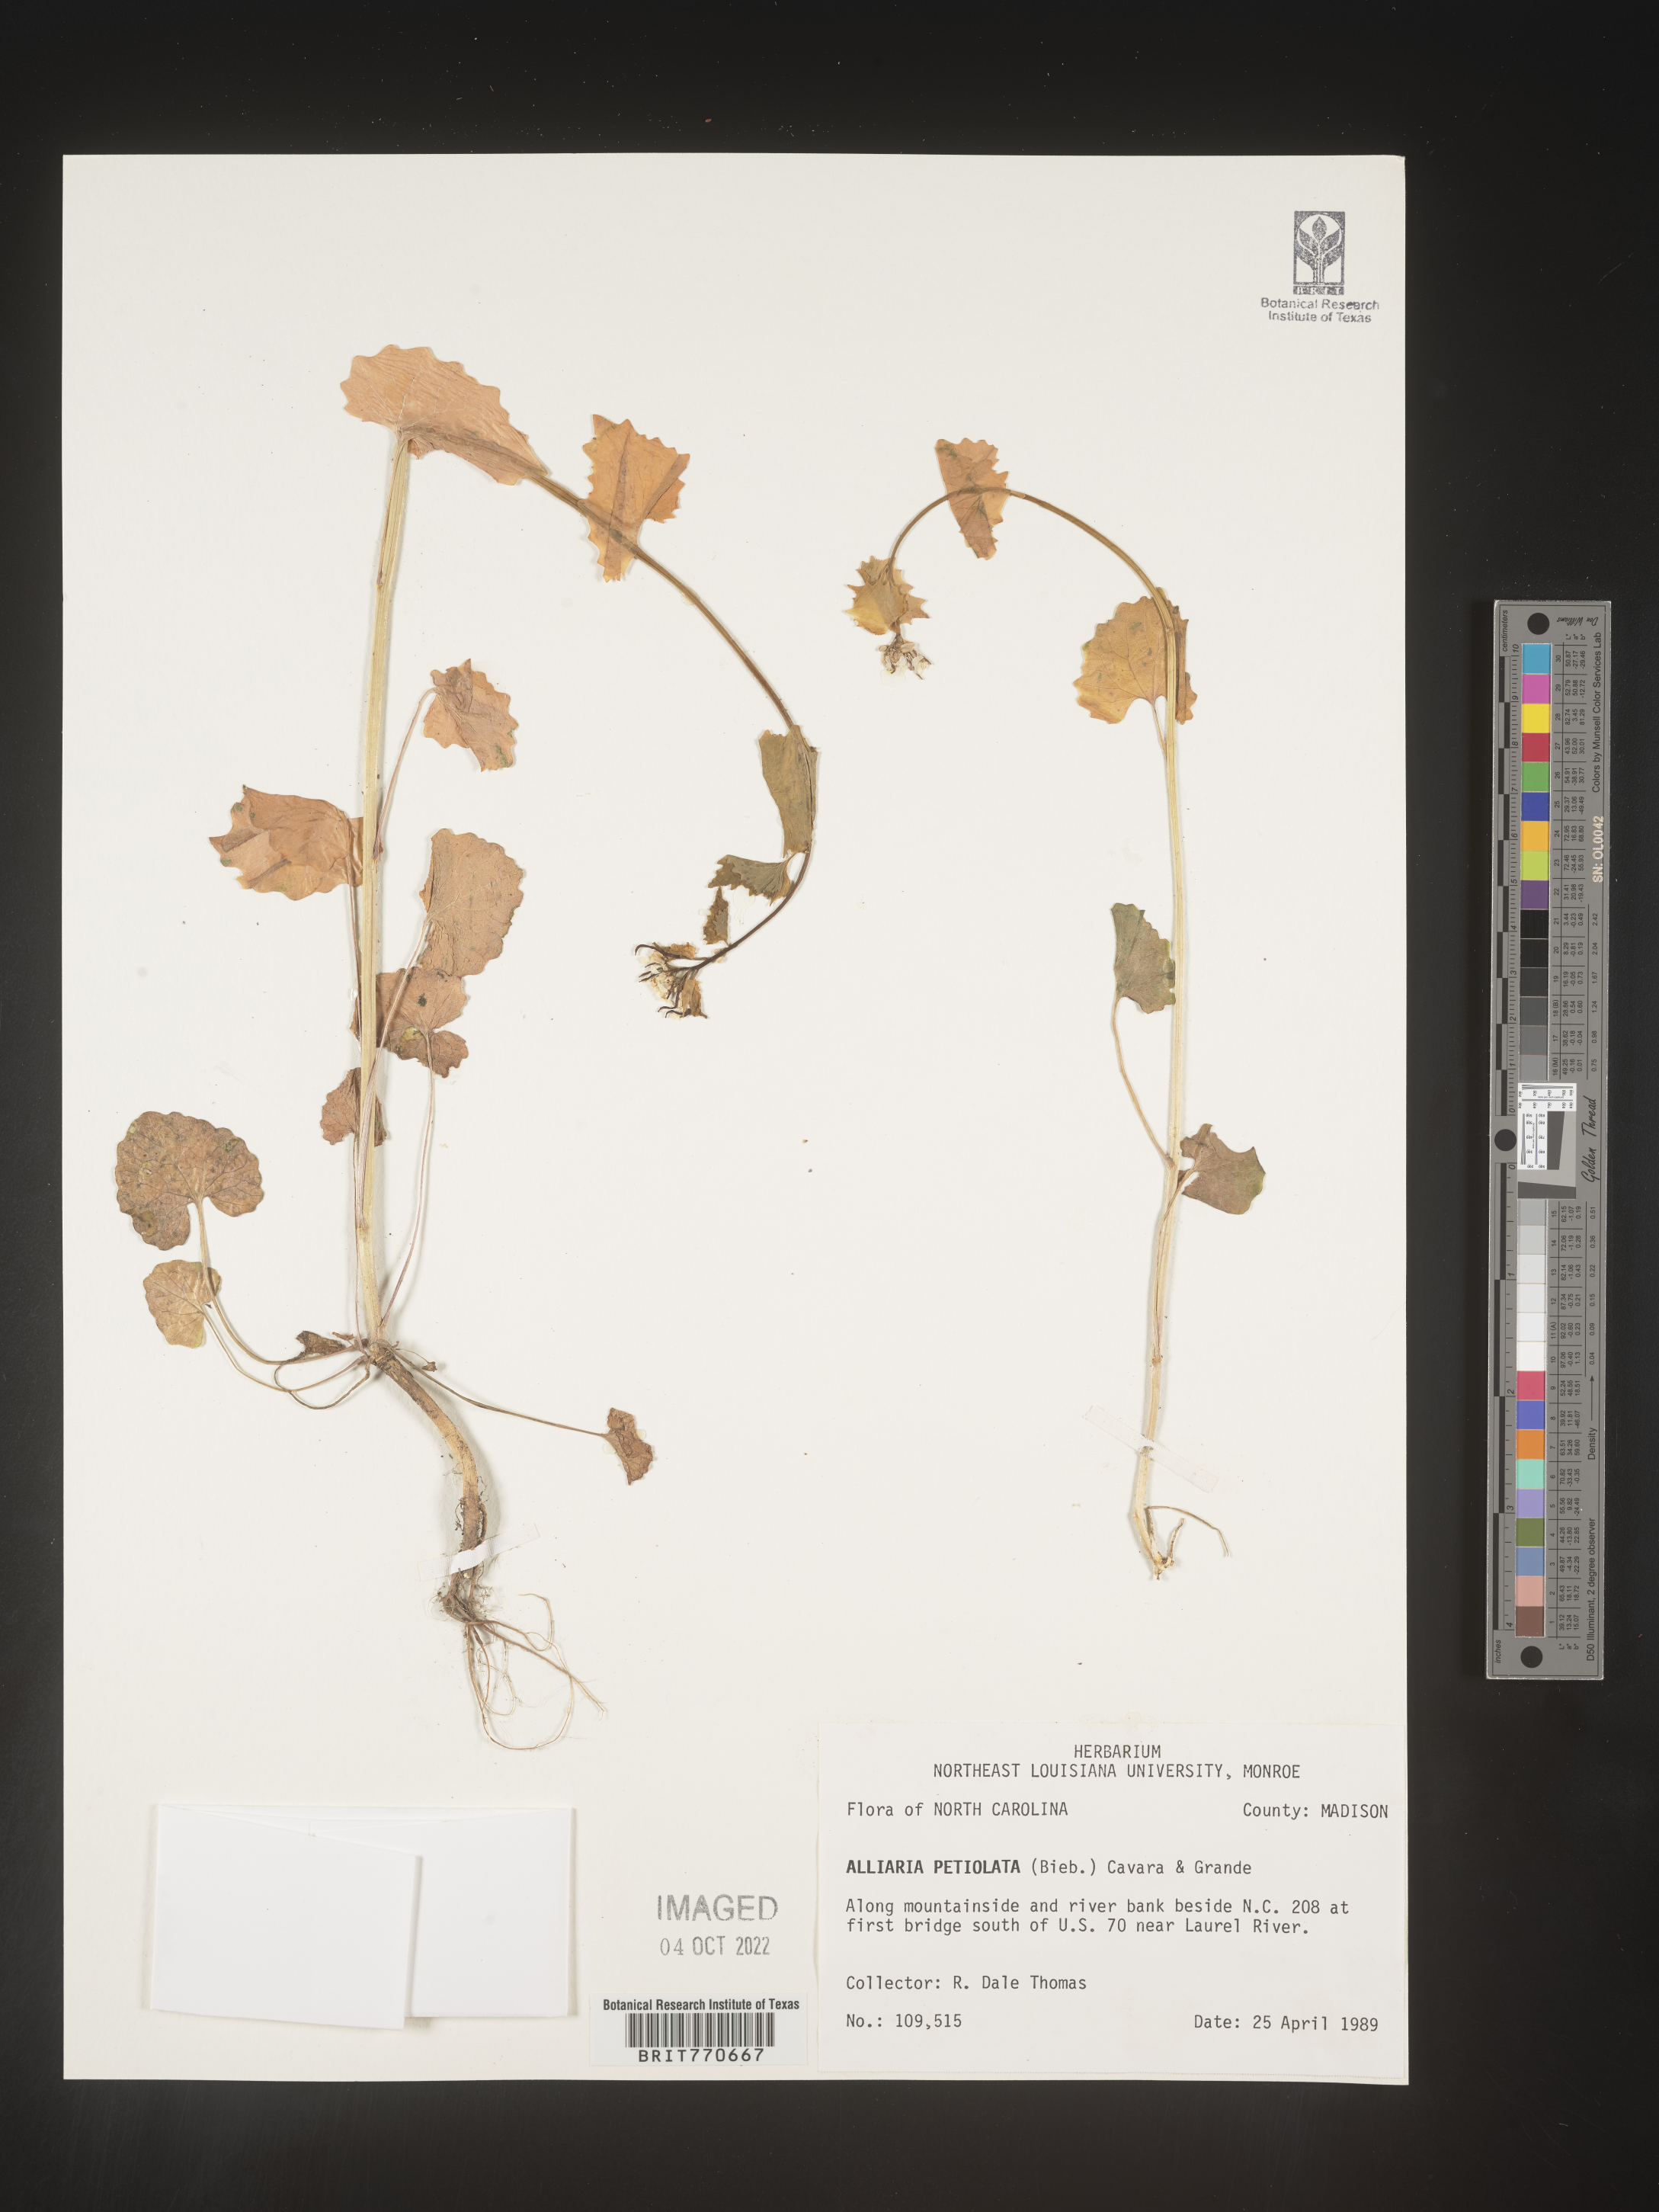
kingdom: Plantae
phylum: Tracheophyta
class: Magnoliopsida
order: Brassicales
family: Brassicaceae
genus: Alliaria
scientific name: Alliaria
